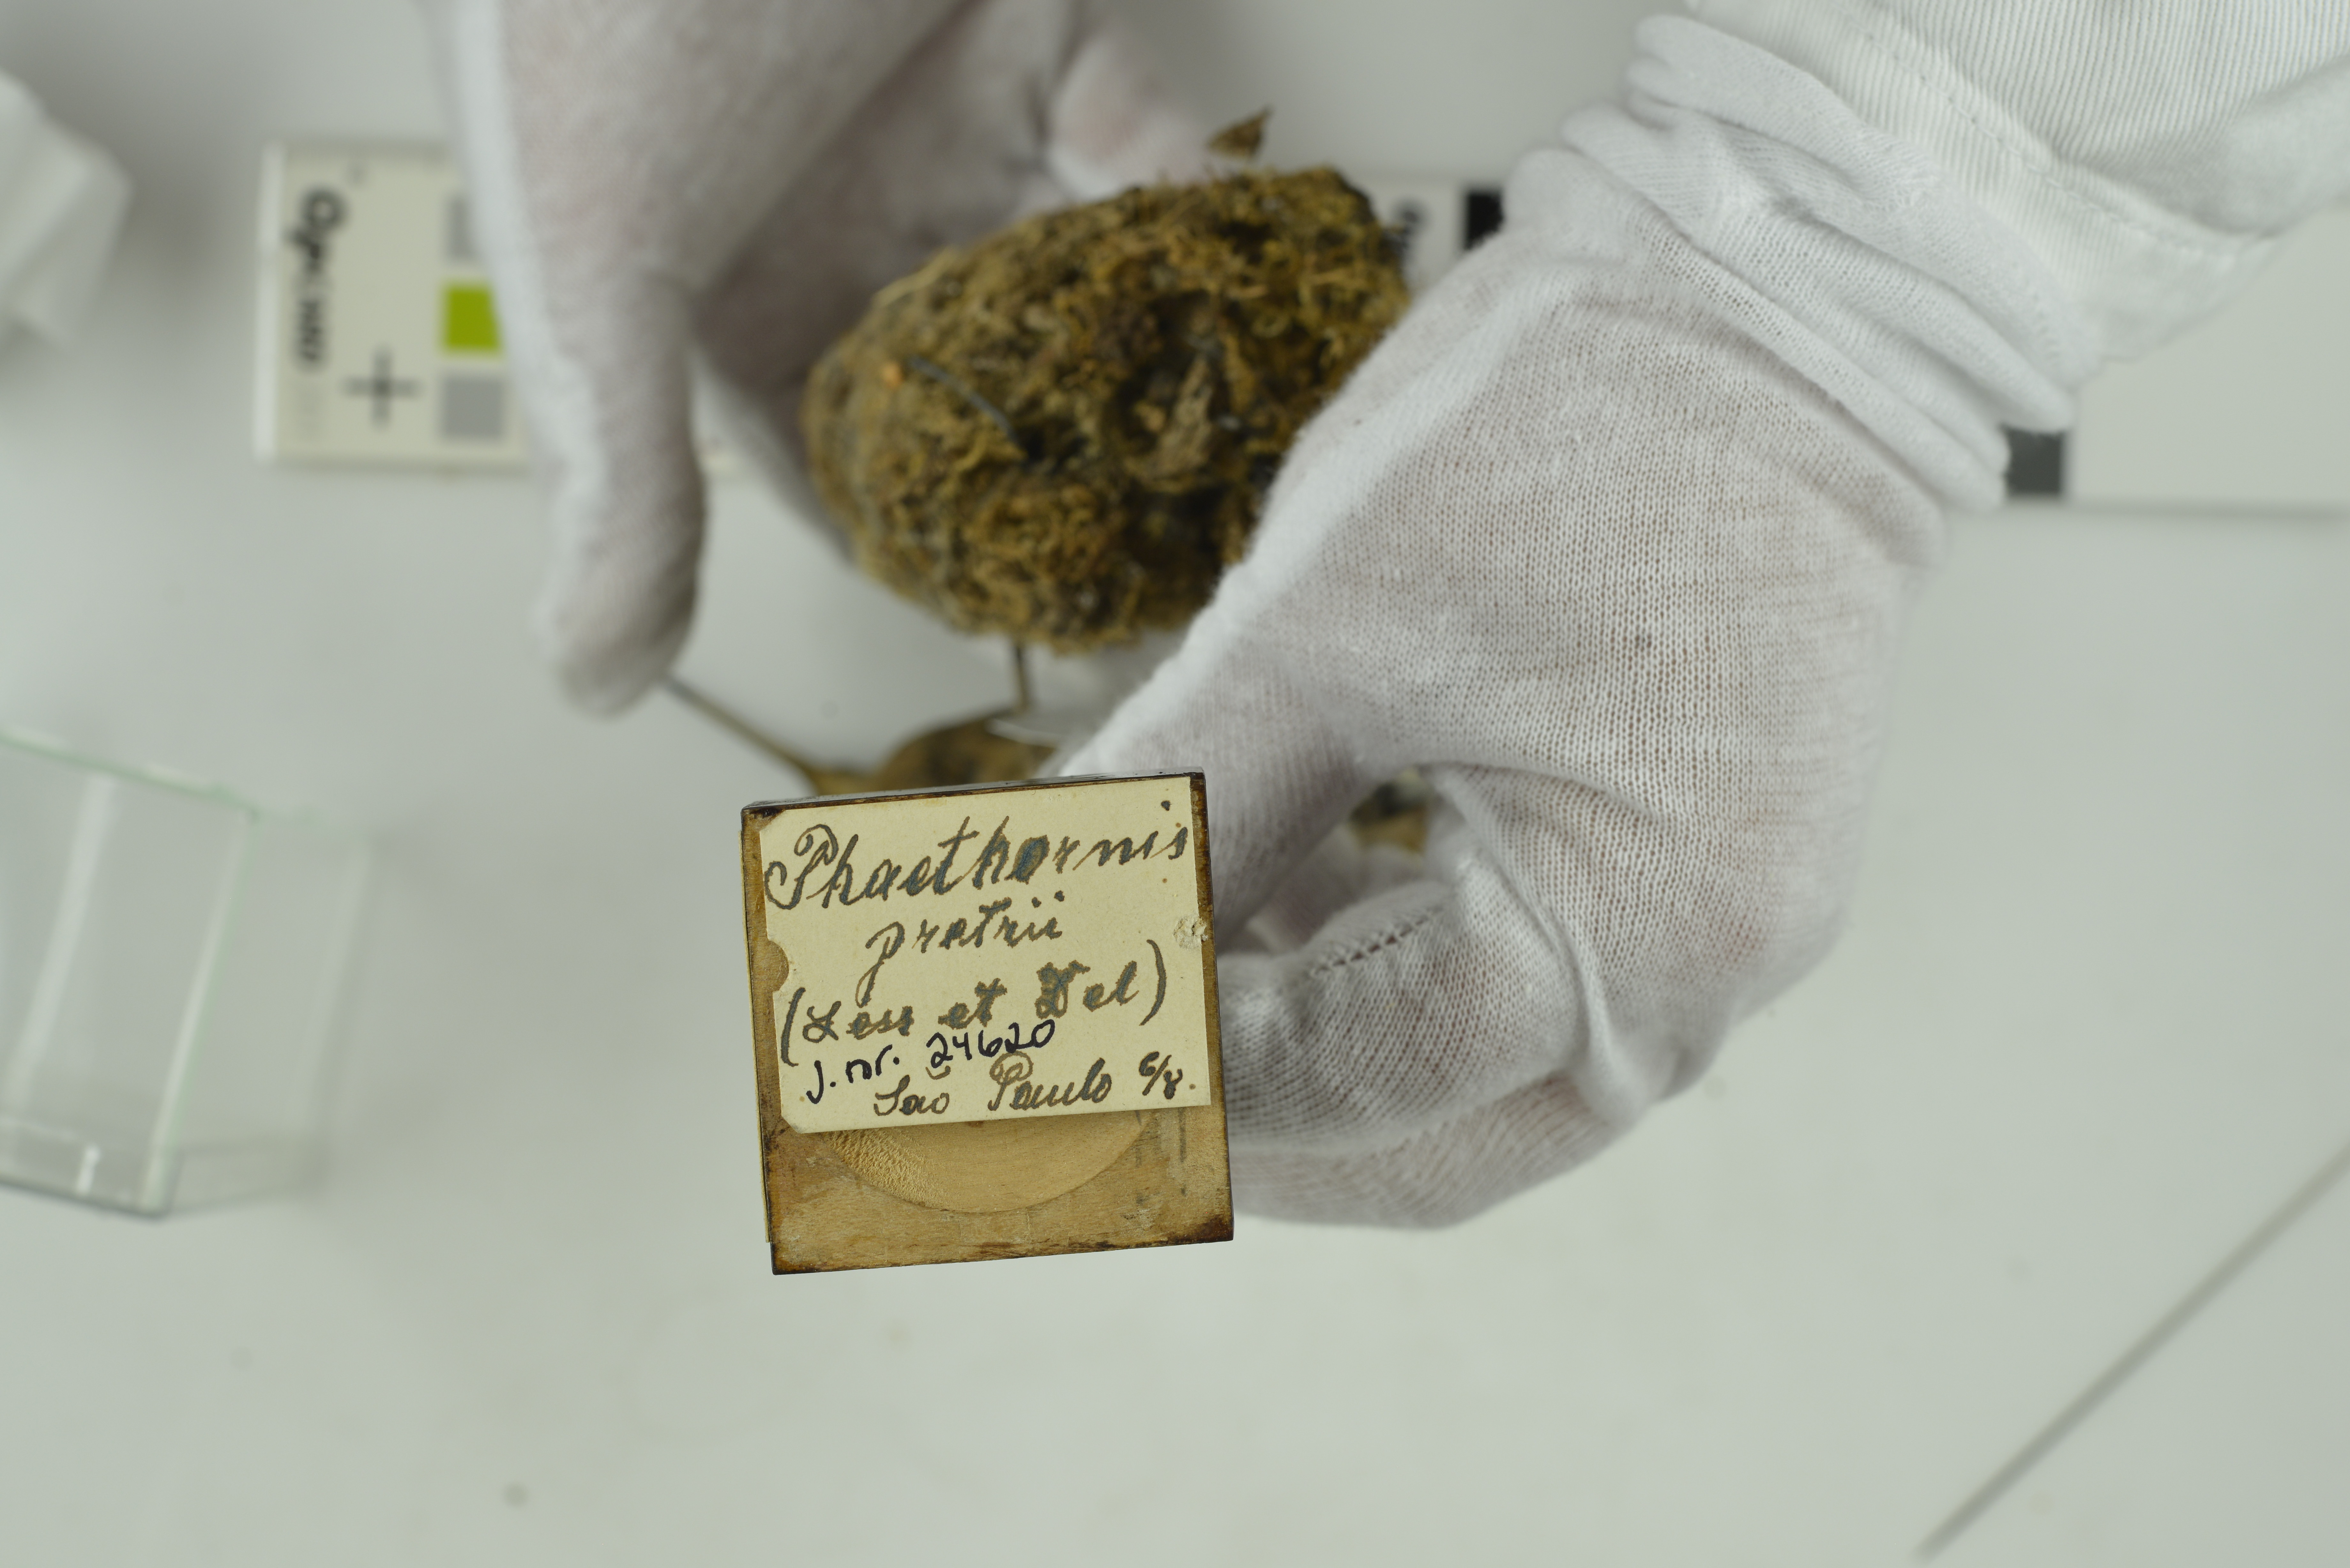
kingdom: Animalia
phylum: Chordata
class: Aves
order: Apodiformes
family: Trochilidae
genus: Phaethornis
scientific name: Phaethornis pretrei
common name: Planalto hermit
